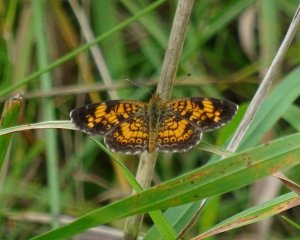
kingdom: Animalia
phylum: Arthropoda
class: Insecta
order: Lepidoptera
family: Nymphalidae
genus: Phyciodes
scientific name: Phyciodes tharos
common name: Pearl Crescent
